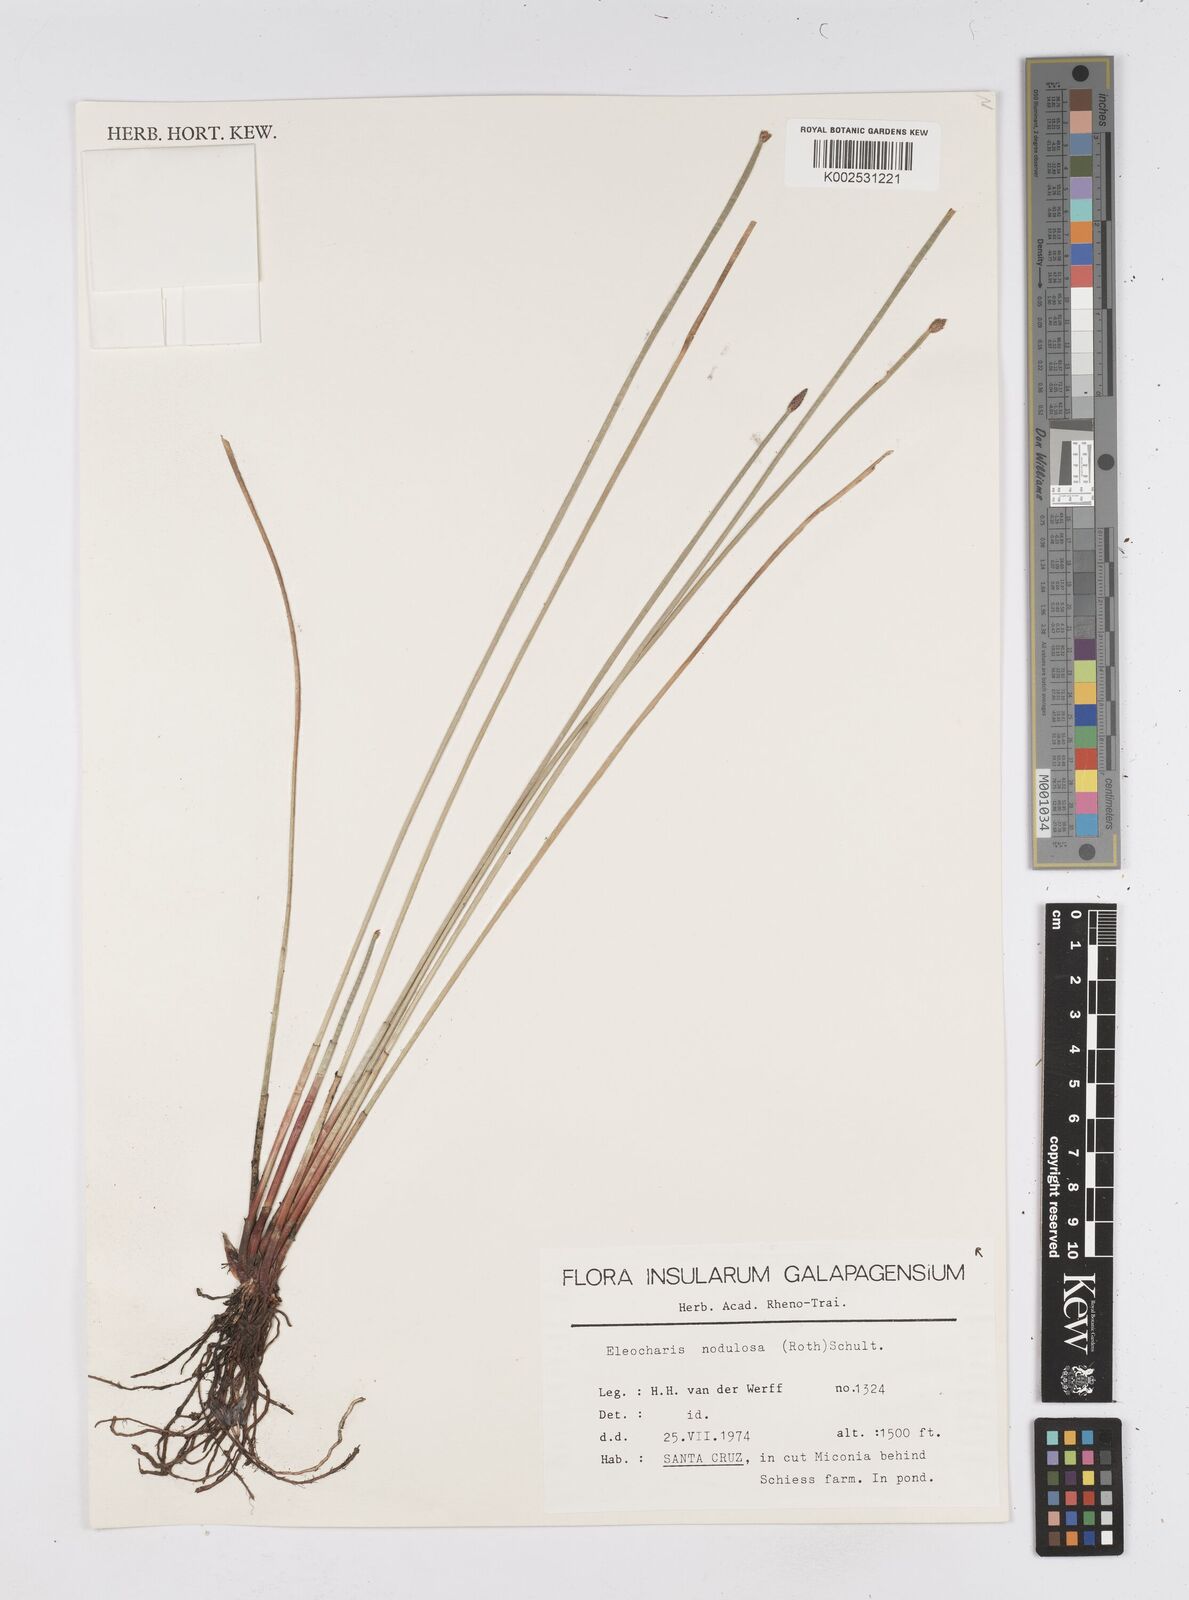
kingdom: Plantae
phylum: Tracheophyta
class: Liliopsida
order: Poales
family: Cyperaceae
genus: Eleocharis
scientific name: Eleocharis montana
